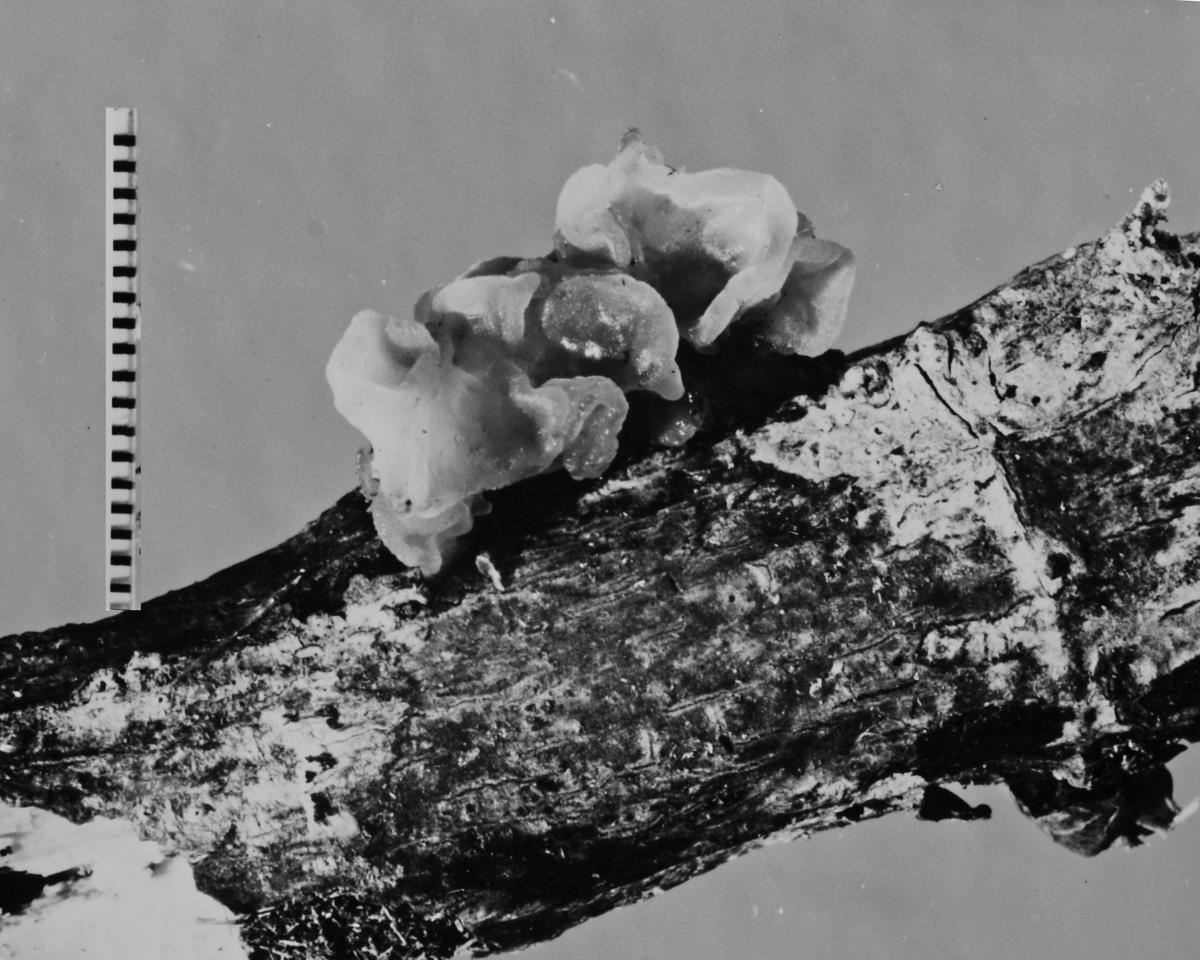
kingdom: Fungi
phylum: Basidiomycota
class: Tremellomycetes
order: Tremellales
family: Tremellaceae
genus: Tremella
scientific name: Tremella mesenterica
